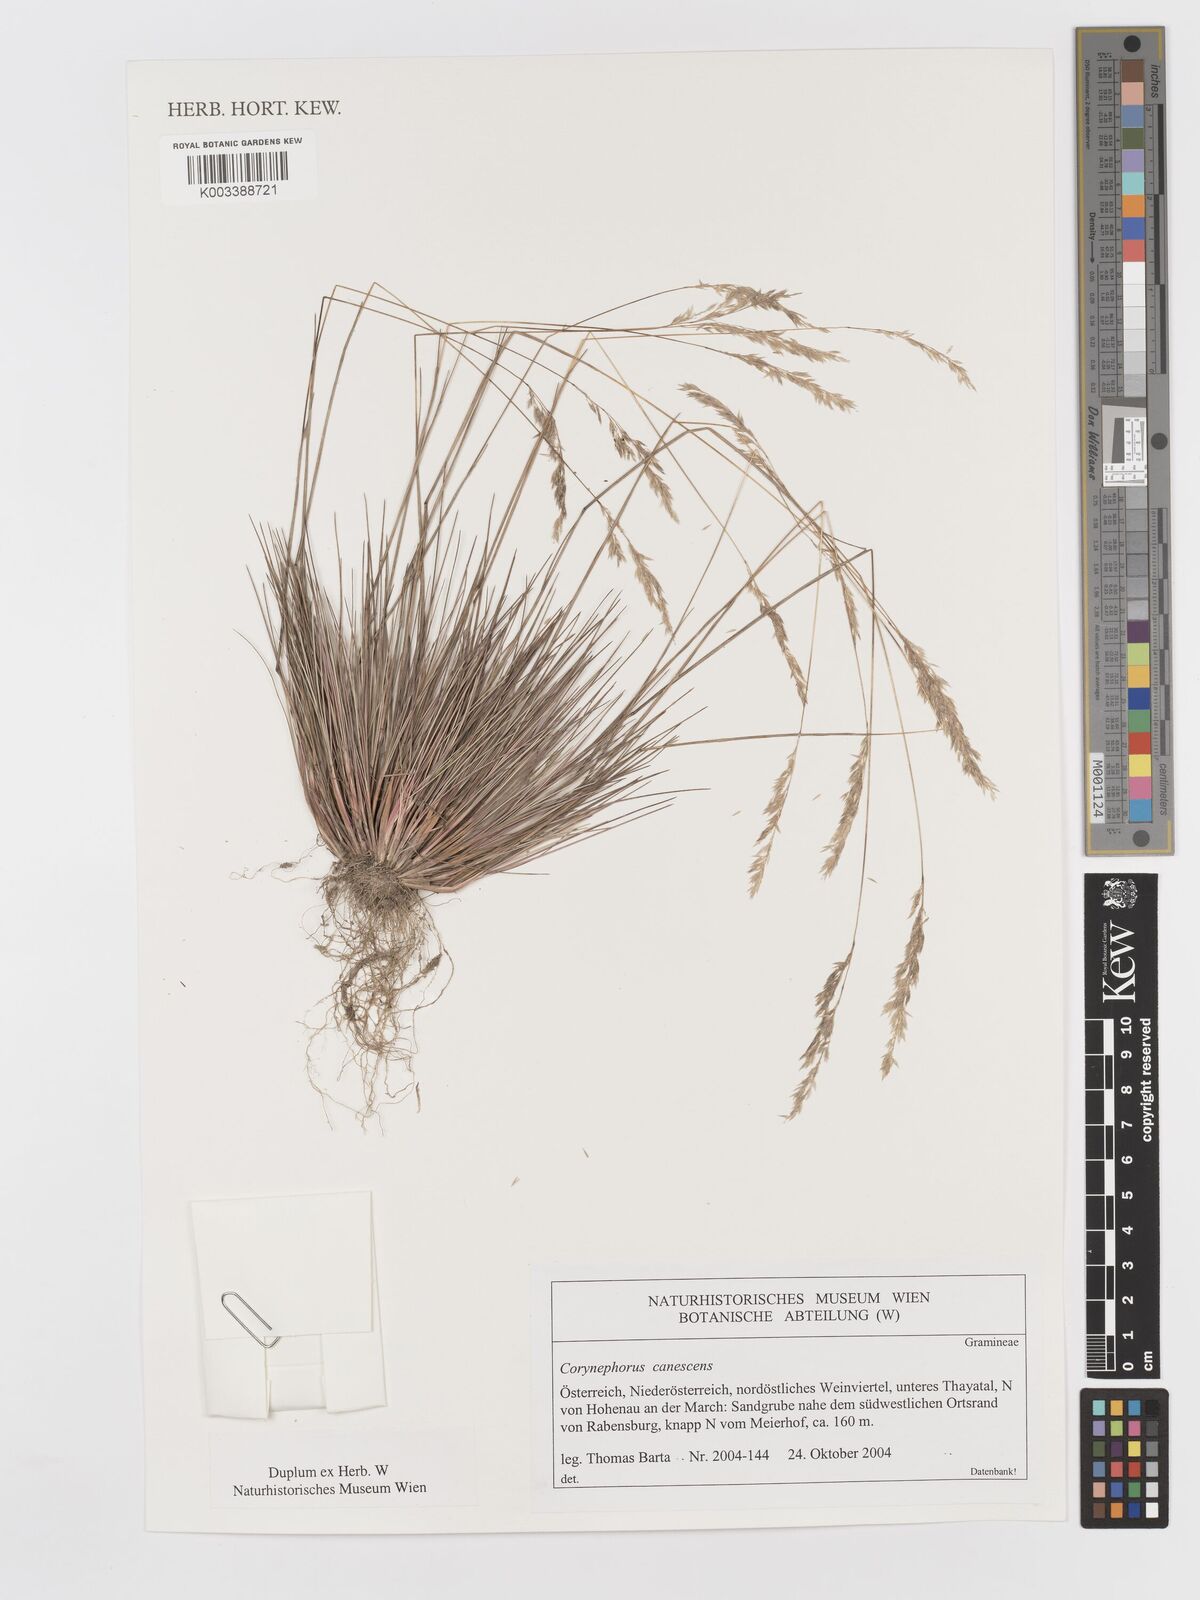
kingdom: Plantae
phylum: Tracheophyta
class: Liliopsida
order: Poales
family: Poaceae
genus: Corynephorus
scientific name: Corynephorus canescens
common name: Grey hair-grass
